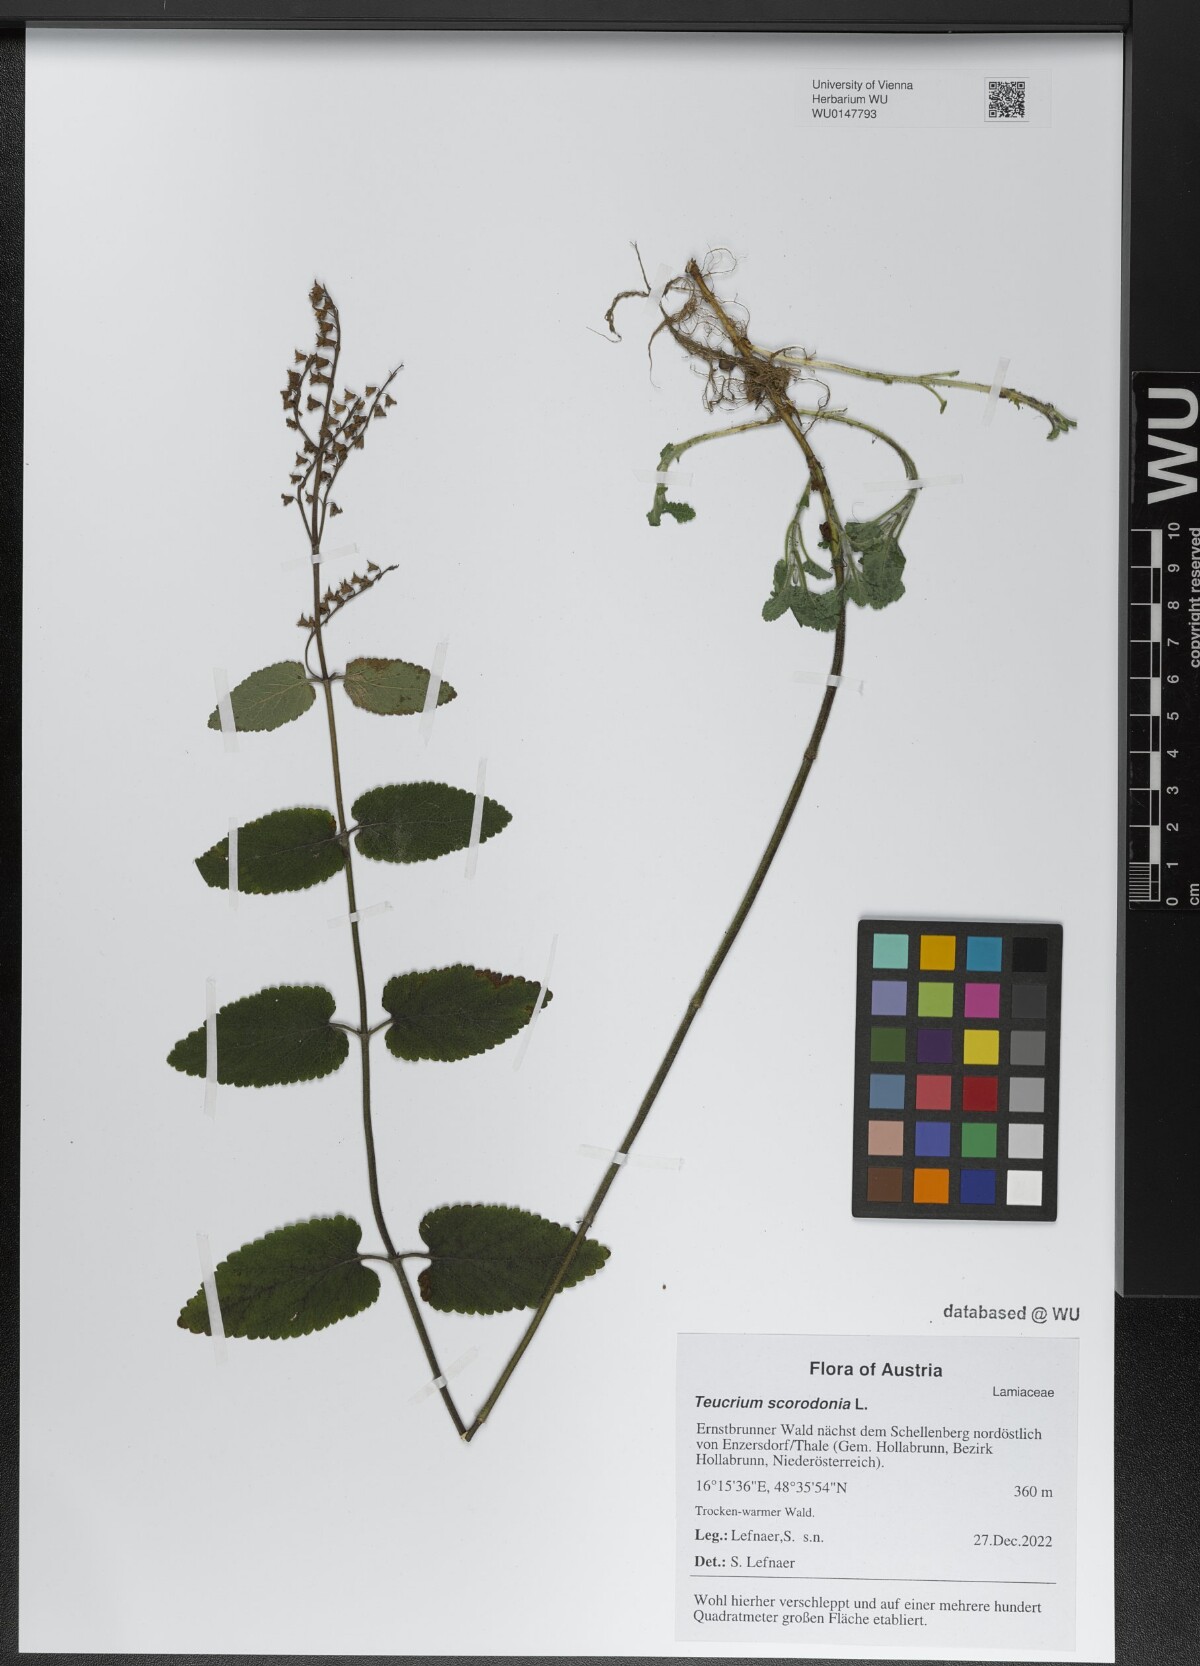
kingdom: Plantae
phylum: Tracheophyta
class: Magnoliopsida
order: Lamiales
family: Lamiaceae
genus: Teucrium
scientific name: Teucrium scorodonia
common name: Woodland germander
